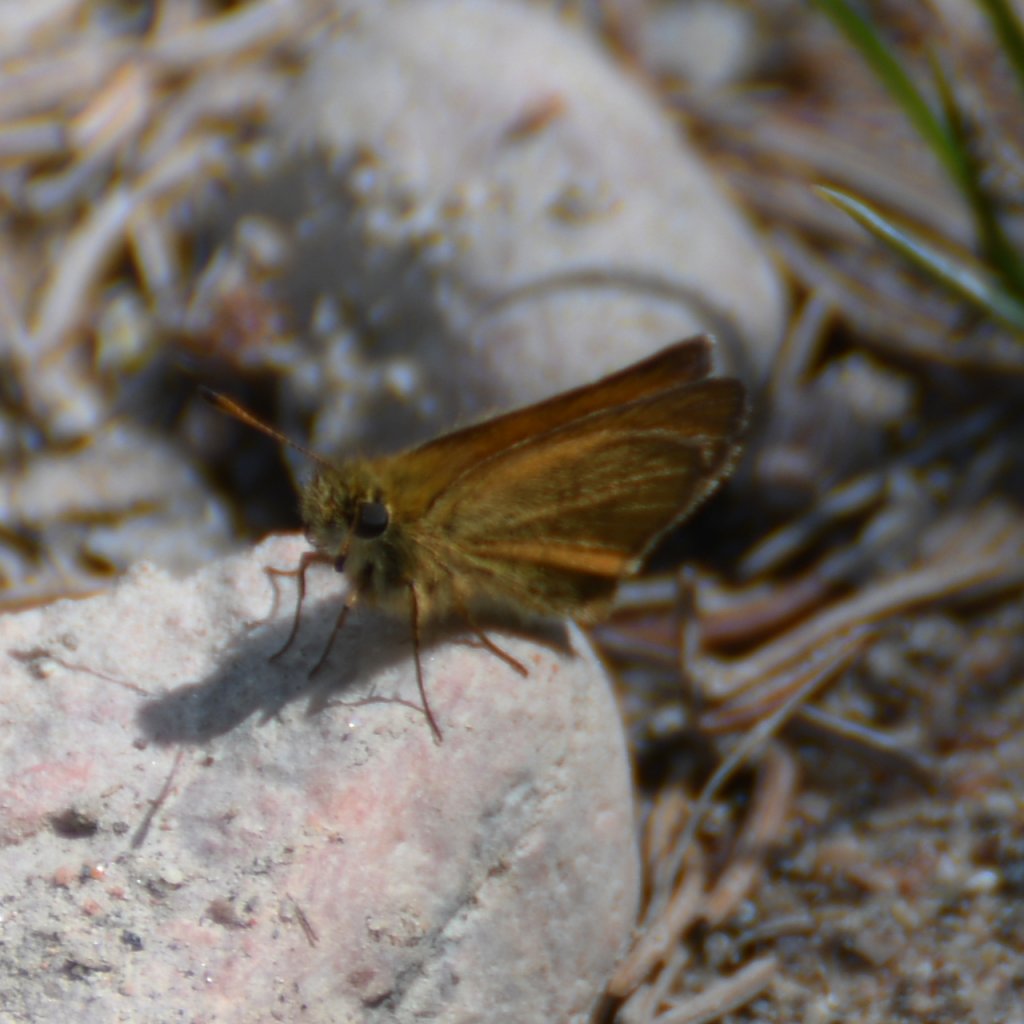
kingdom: Animalia
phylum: Arthropoda
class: Insecta
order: Lepidoptera
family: Hesperiidae
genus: Thymelicus
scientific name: Thymelicus lineola
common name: European Skipper
